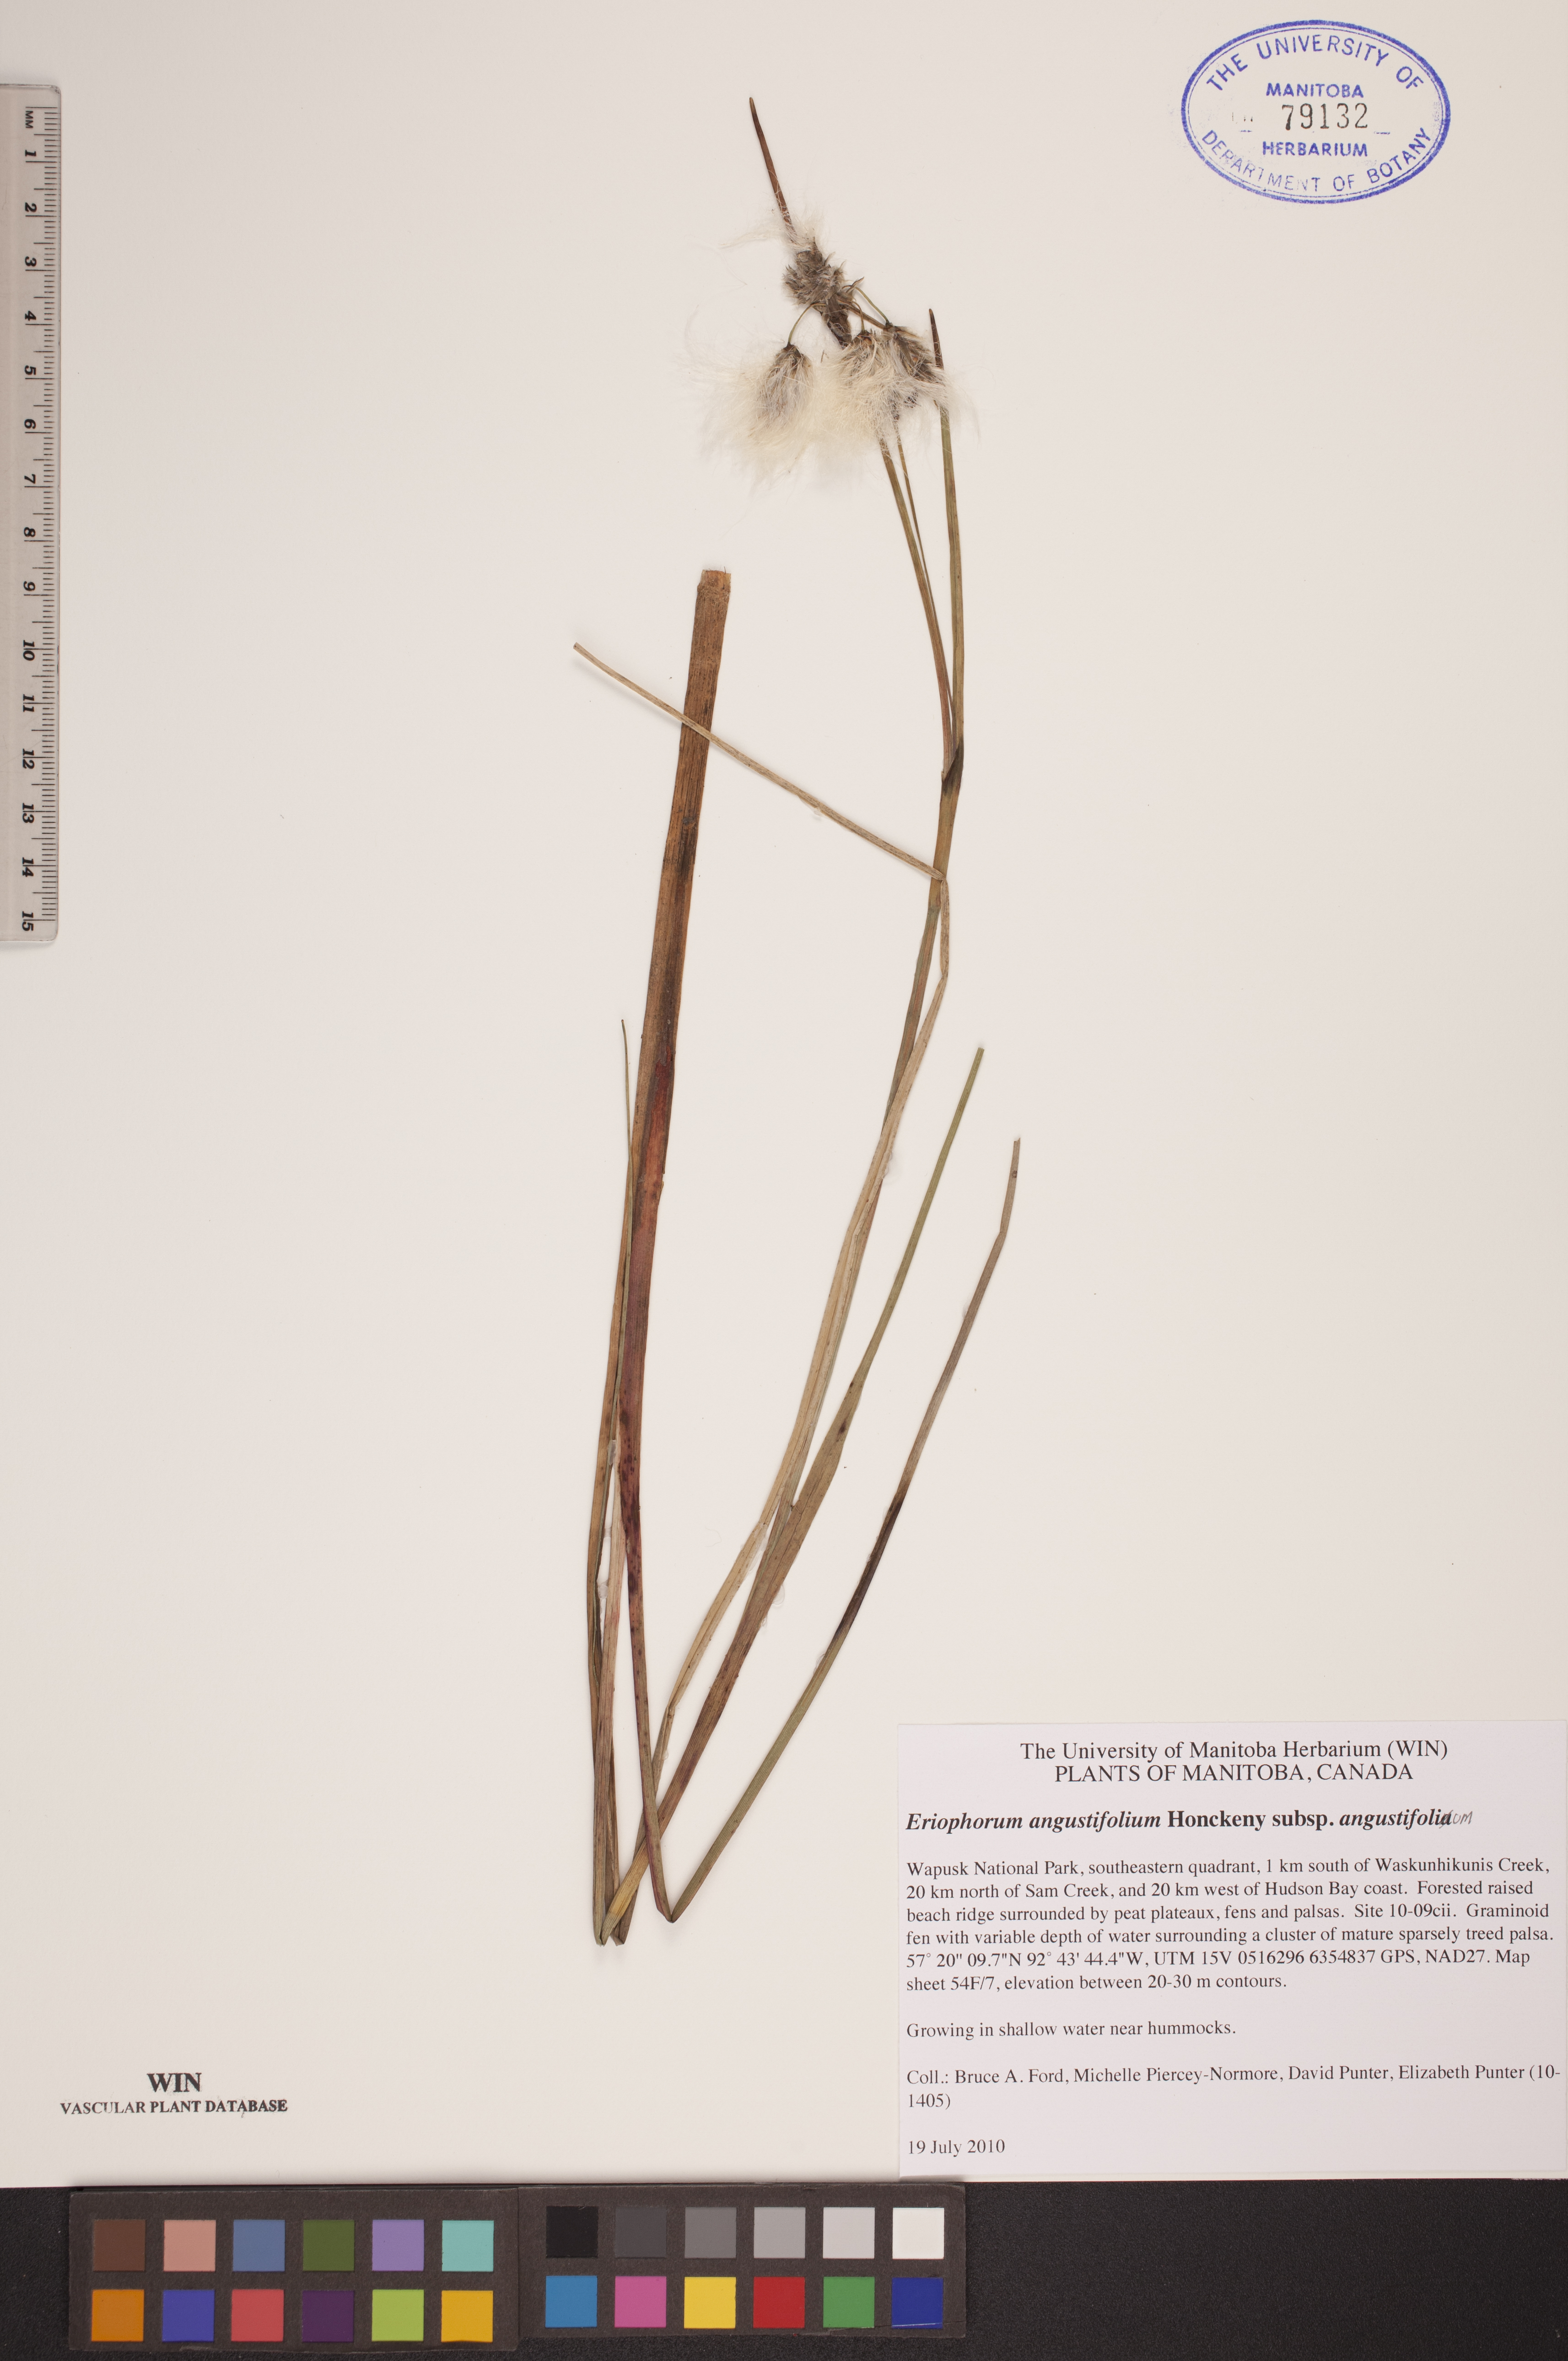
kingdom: Plantae
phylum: Tracheophyta
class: Liliopsida
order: Poales
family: Cyperaceae
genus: Eriophorum
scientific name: Eriophorum angustifolium
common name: Common cottongrass
